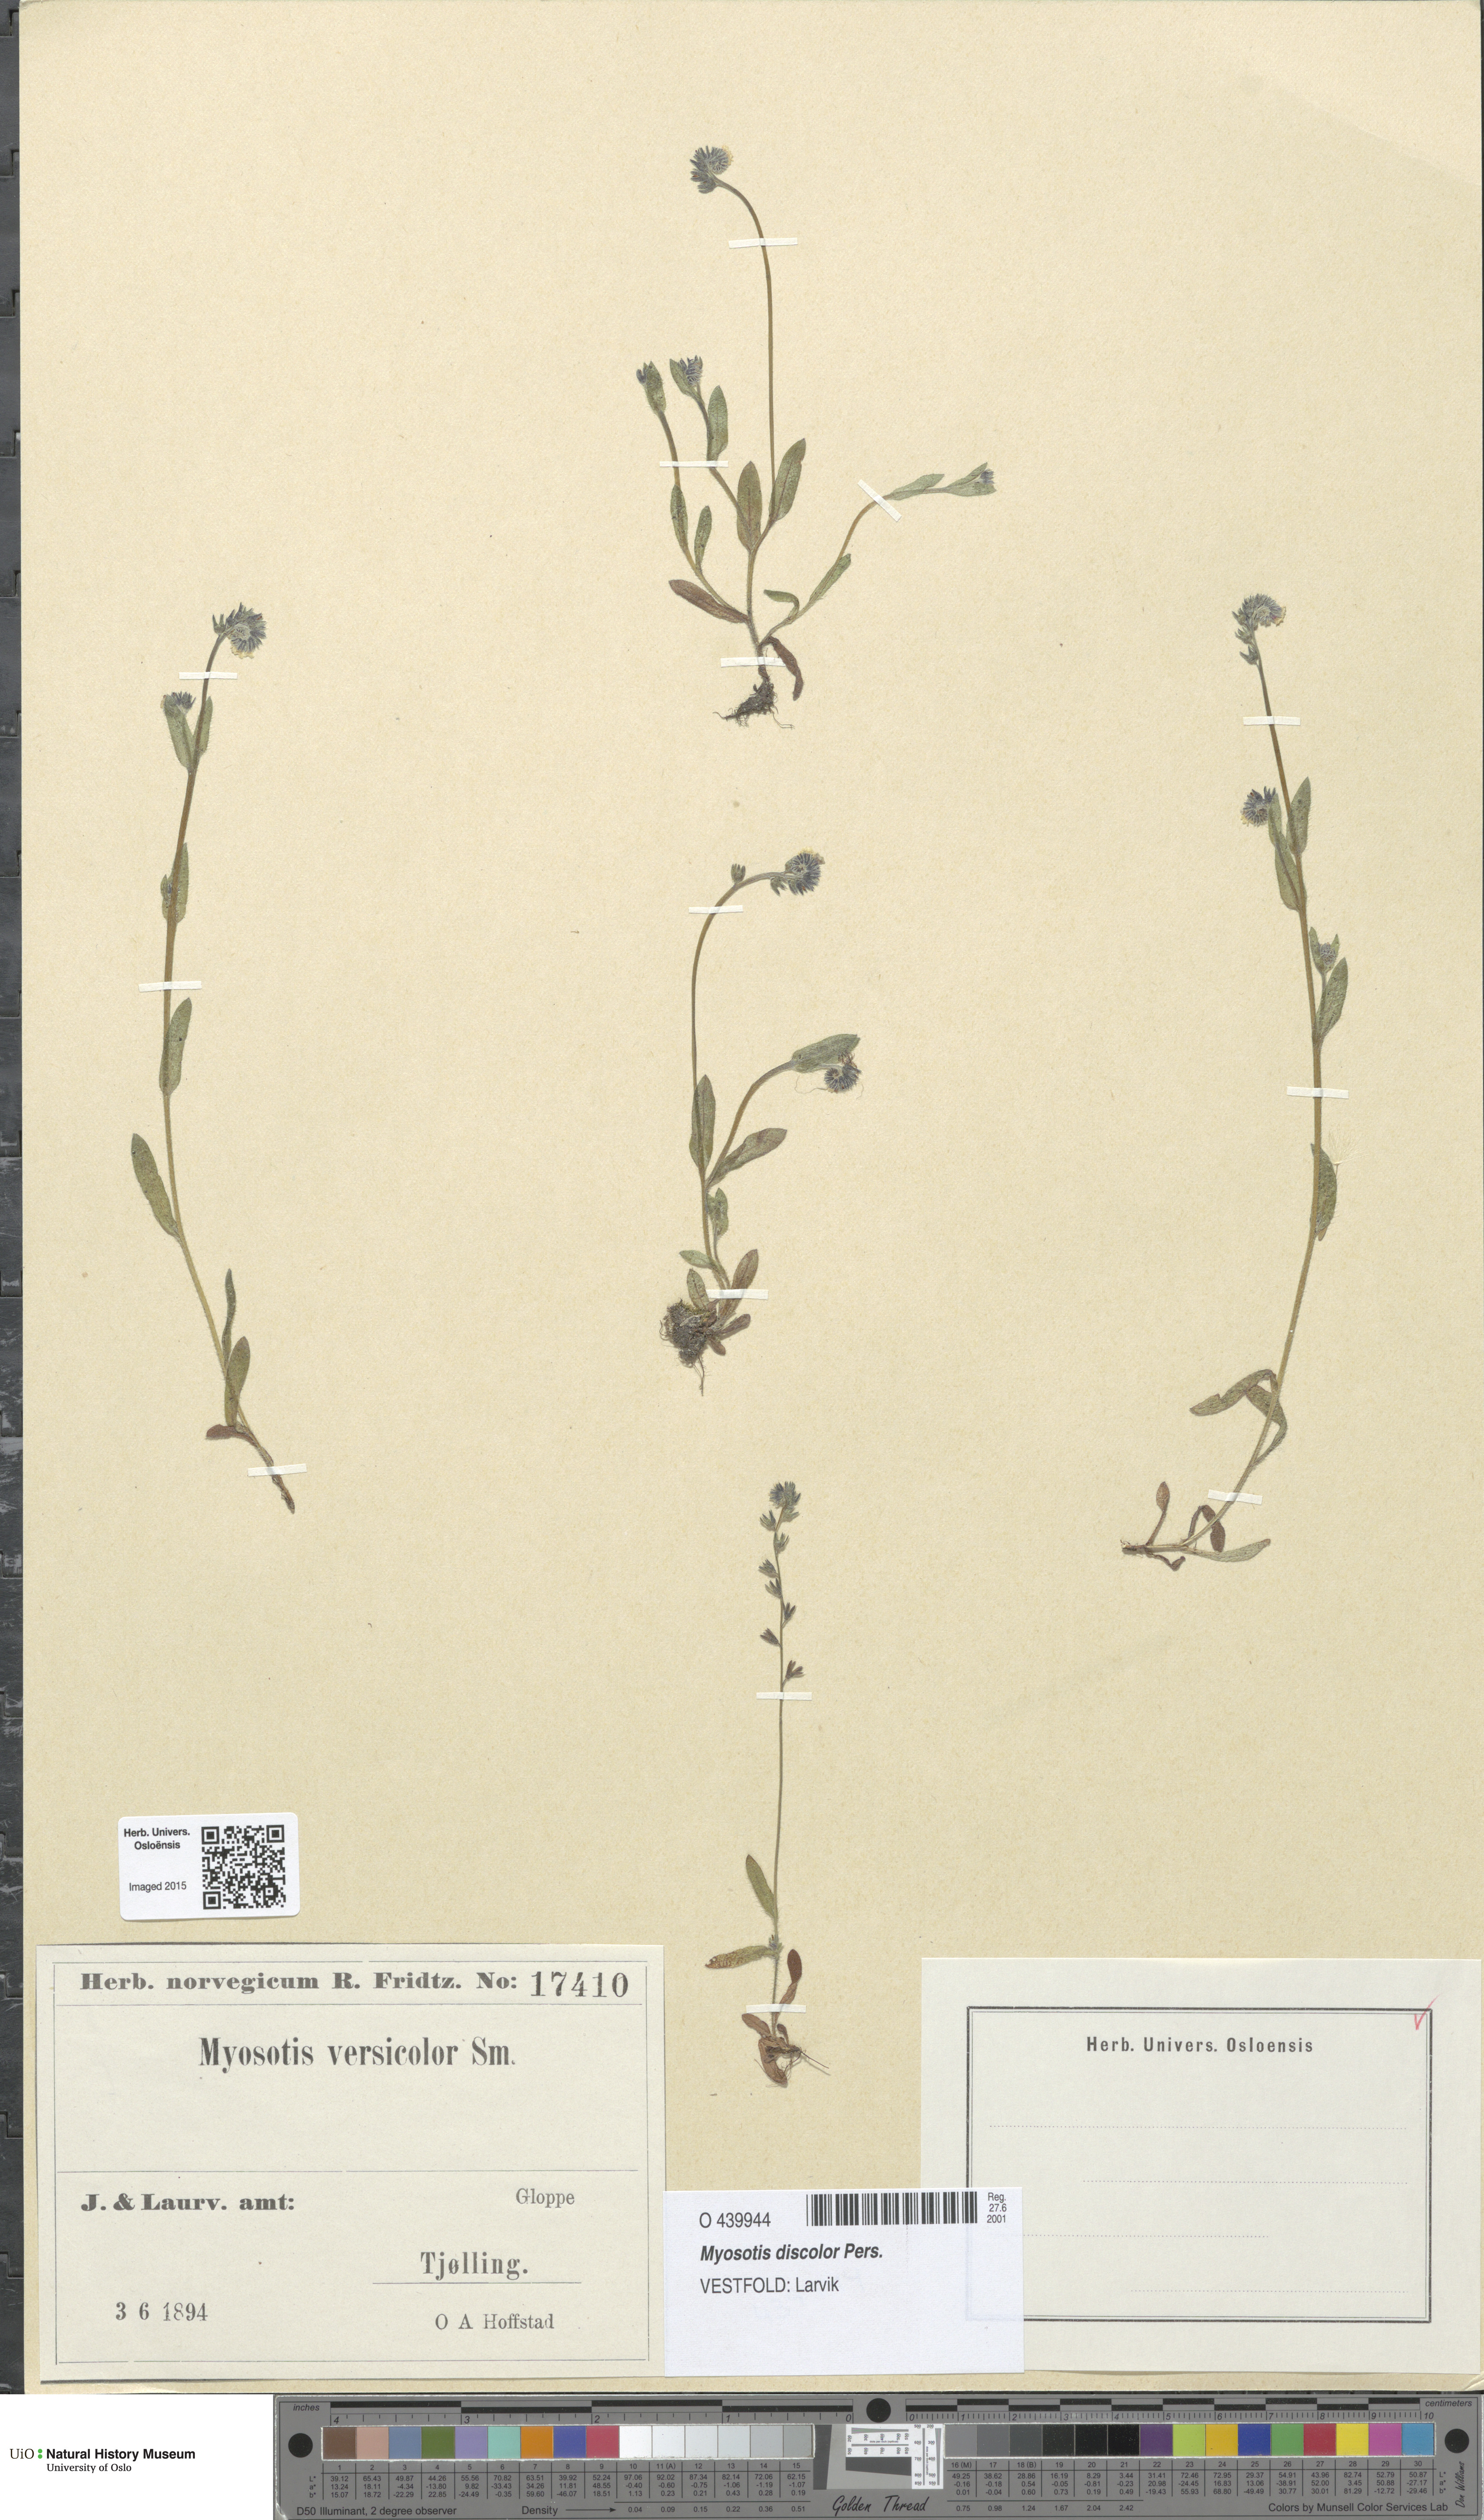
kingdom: Plantae
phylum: Tracheophyta
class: Magnoliopsida
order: Boraginales
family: Boraginaceae
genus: Myosotis
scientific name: Myosotis discolor
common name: Changing forget-me-not
